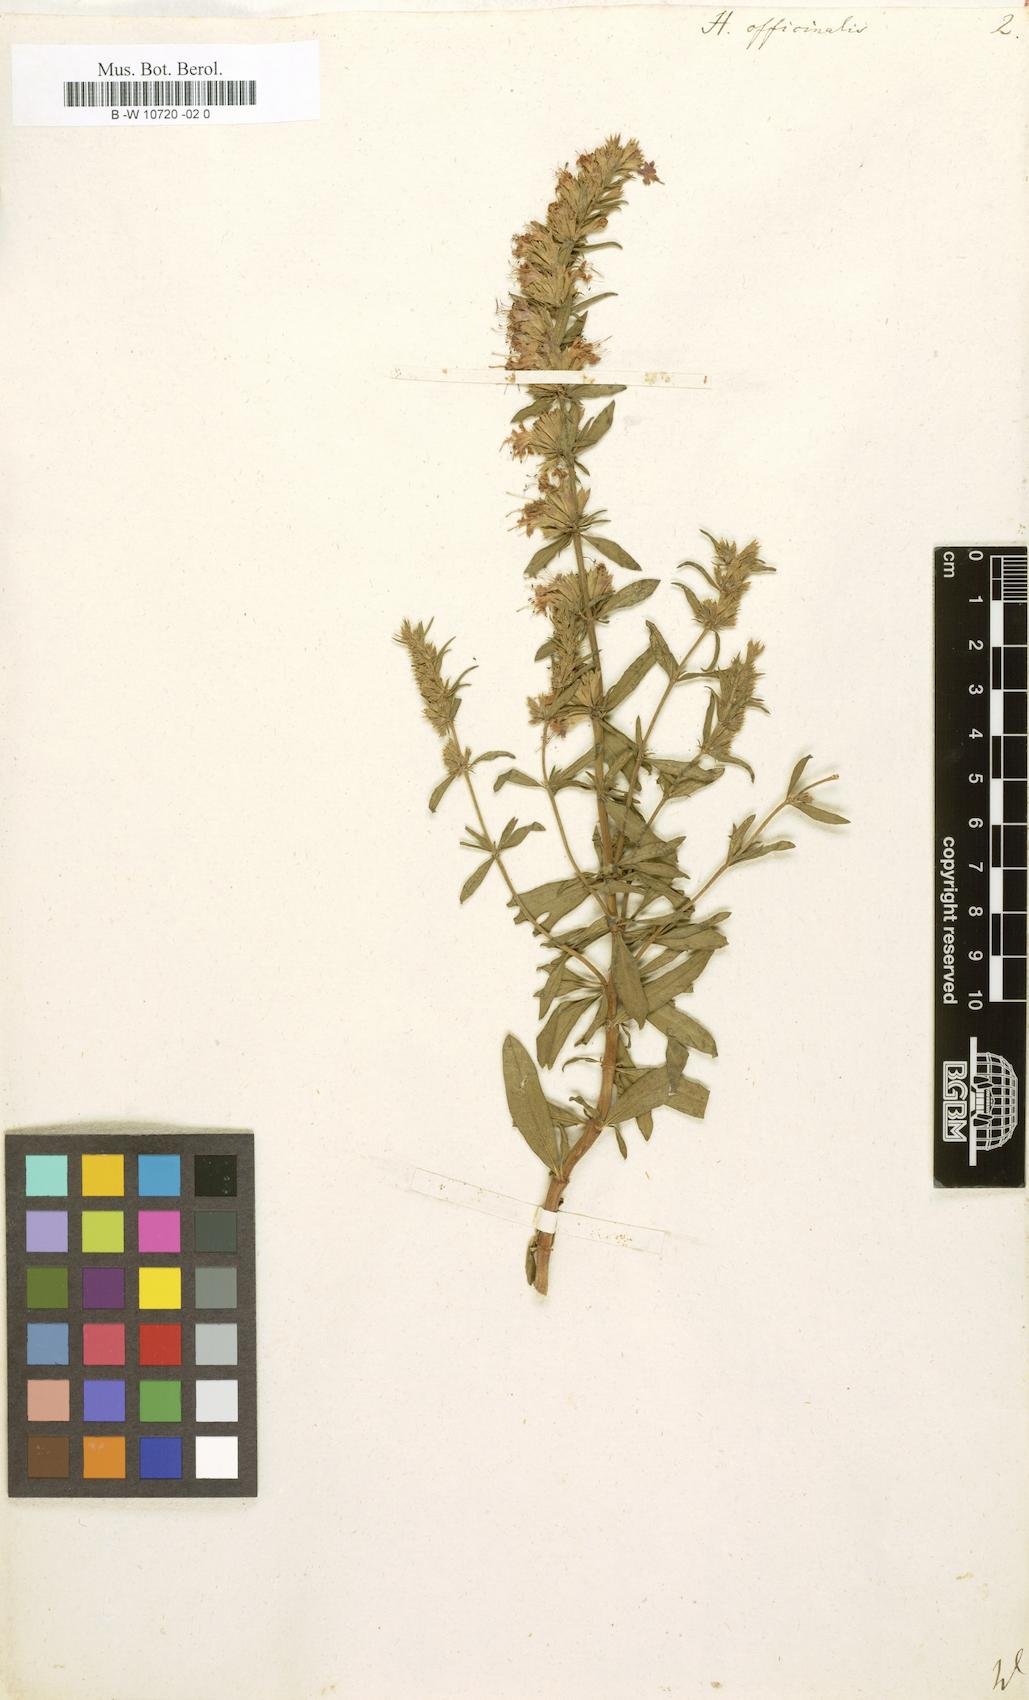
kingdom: Plantae
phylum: Tracheophyta
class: Magnoliopsida
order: Lamiales
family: Lamiaceae
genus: Hyssopus
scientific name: Hyssopus officinalis
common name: Hyssop
